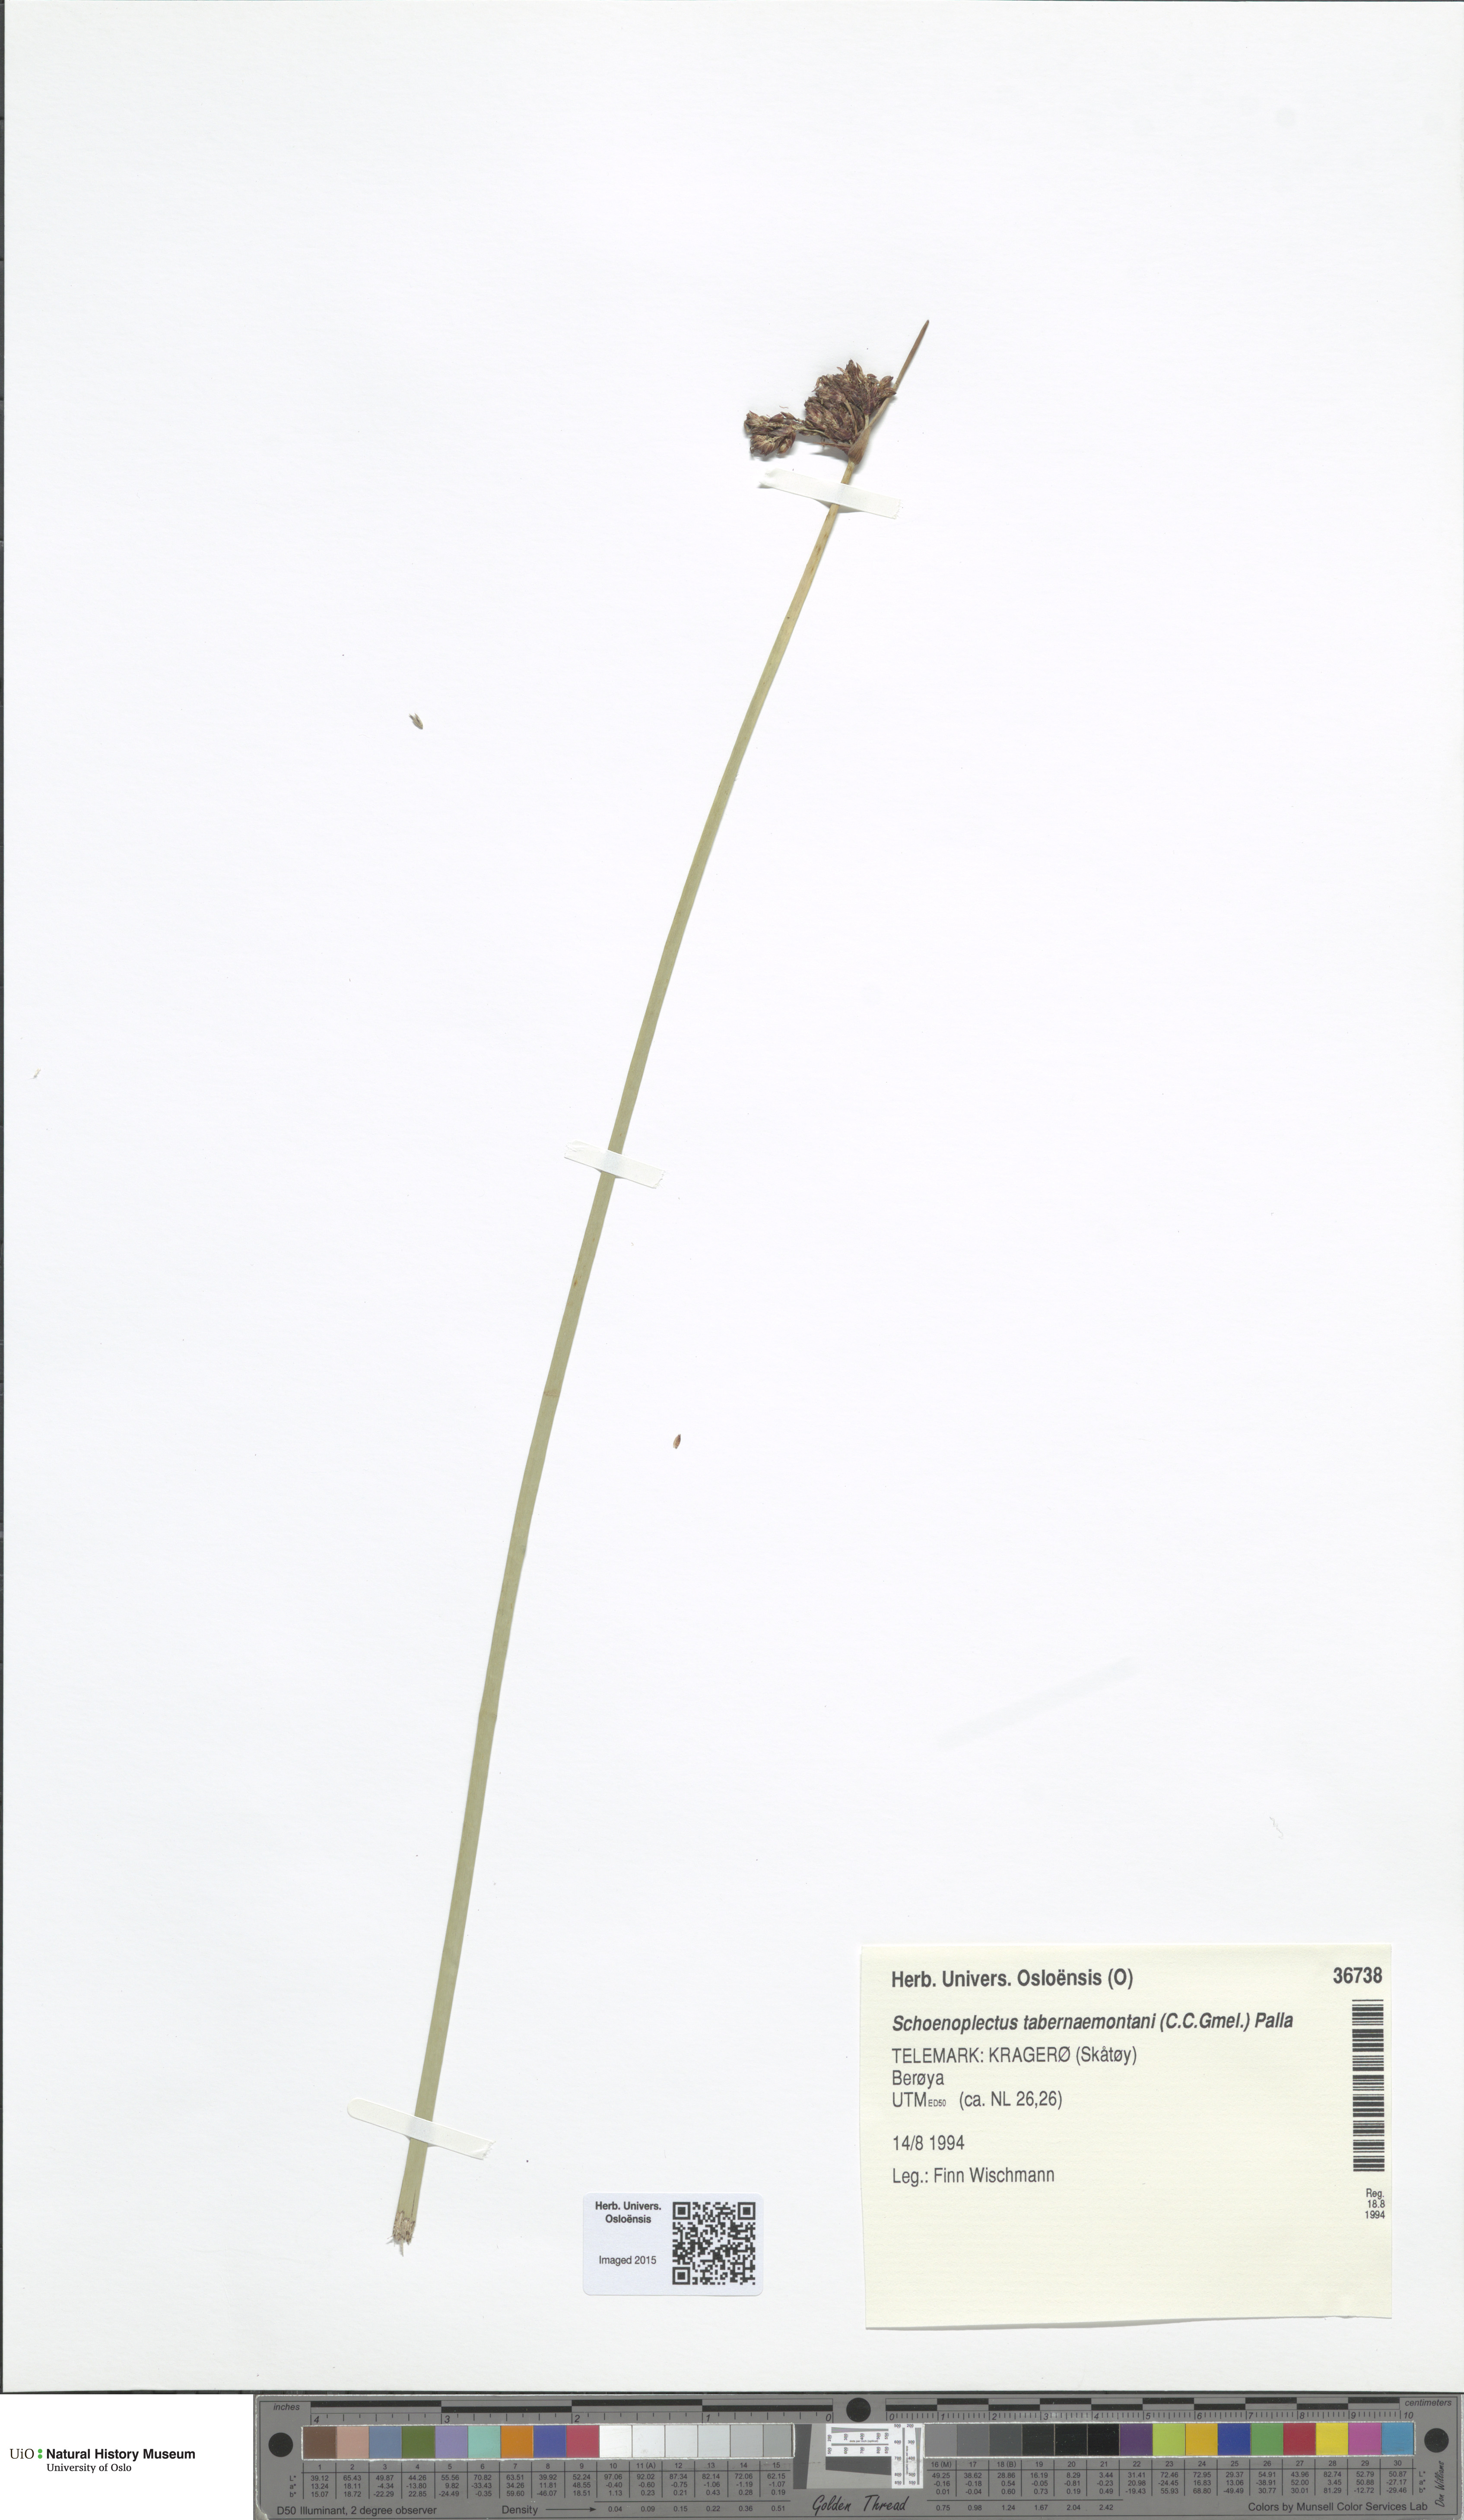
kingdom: Plantae
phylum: Tracheophyta
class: Liliopsida
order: Poales
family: Cyperaceae
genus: Schoenoplectus
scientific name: Schoenoplectus tabernaemontani
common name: Grey club-rush
